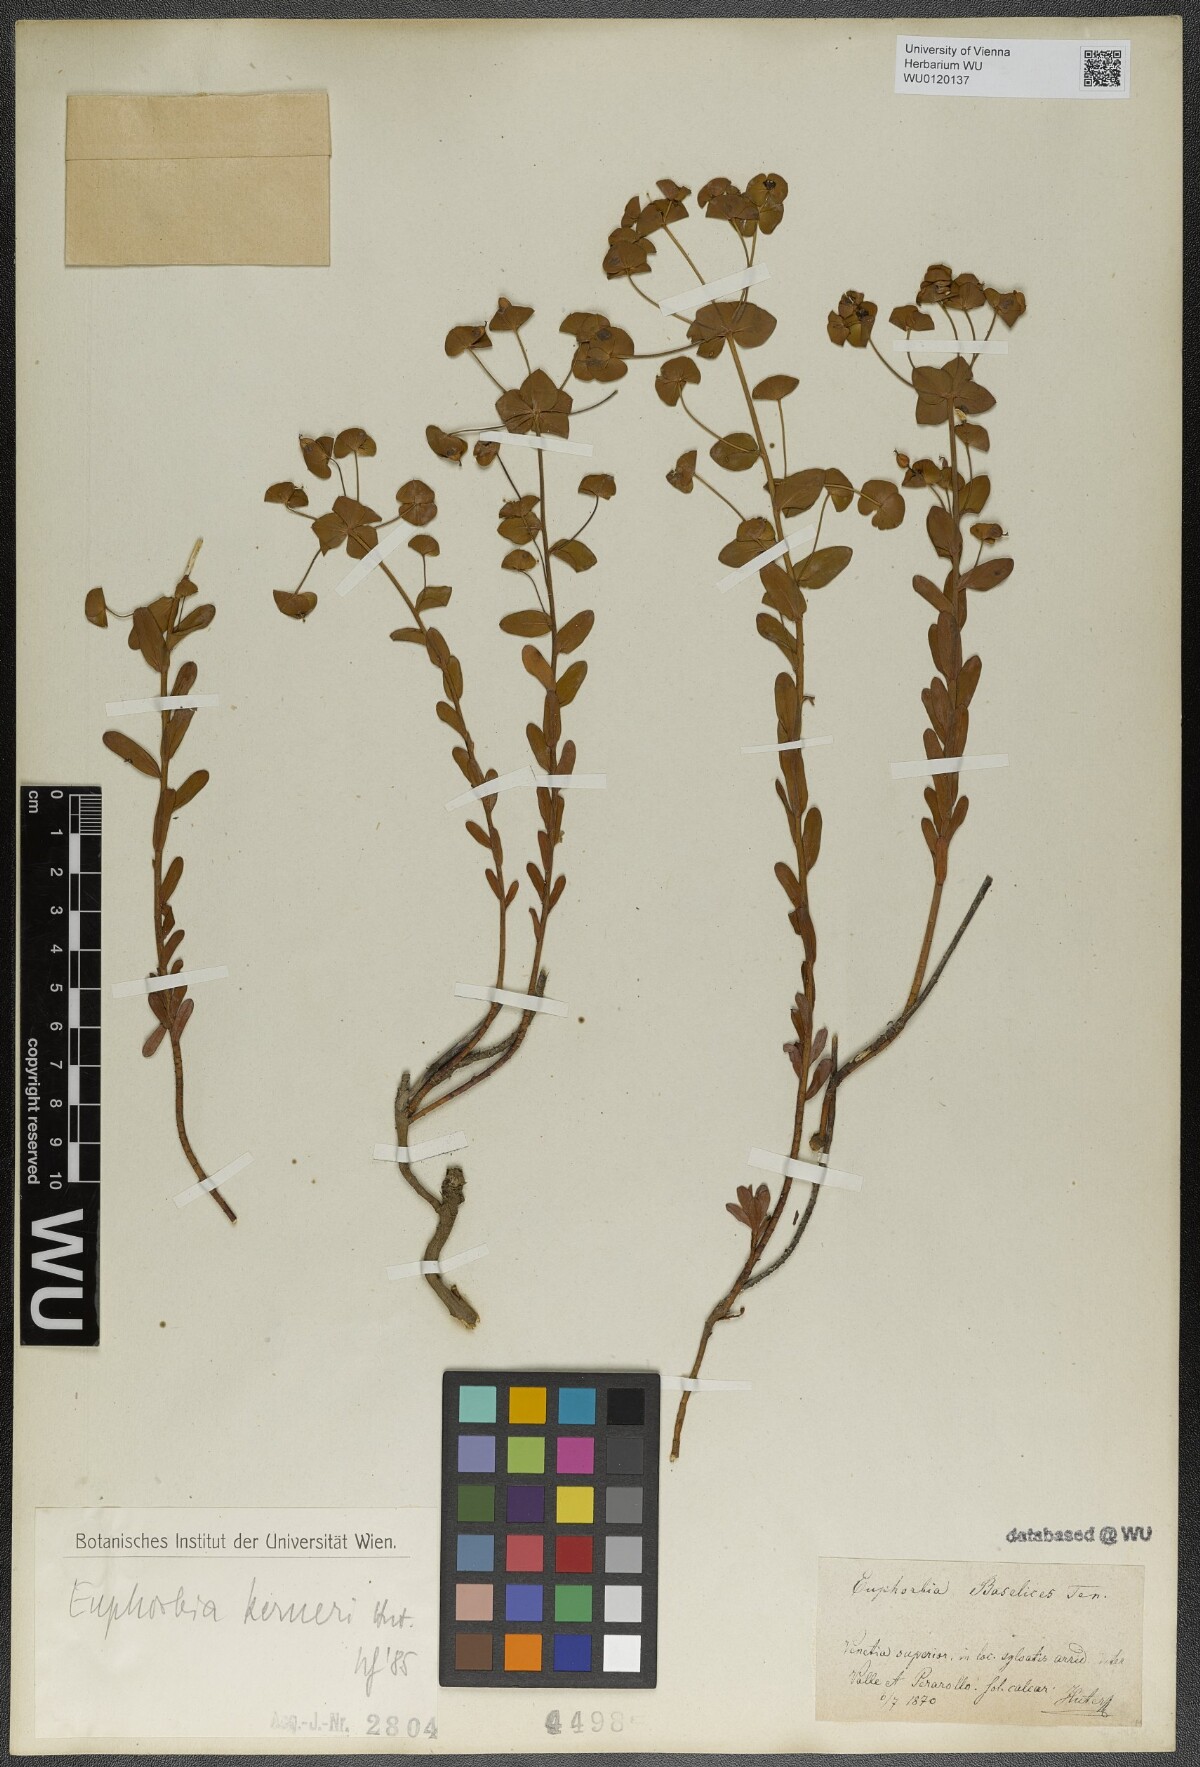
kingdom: Plantae
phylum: Tracheophyta
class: Magnoliopsida
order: Malpighiales
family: Euphorbiaceae
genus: Euphorbia
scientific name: Euphorbia kerneri
